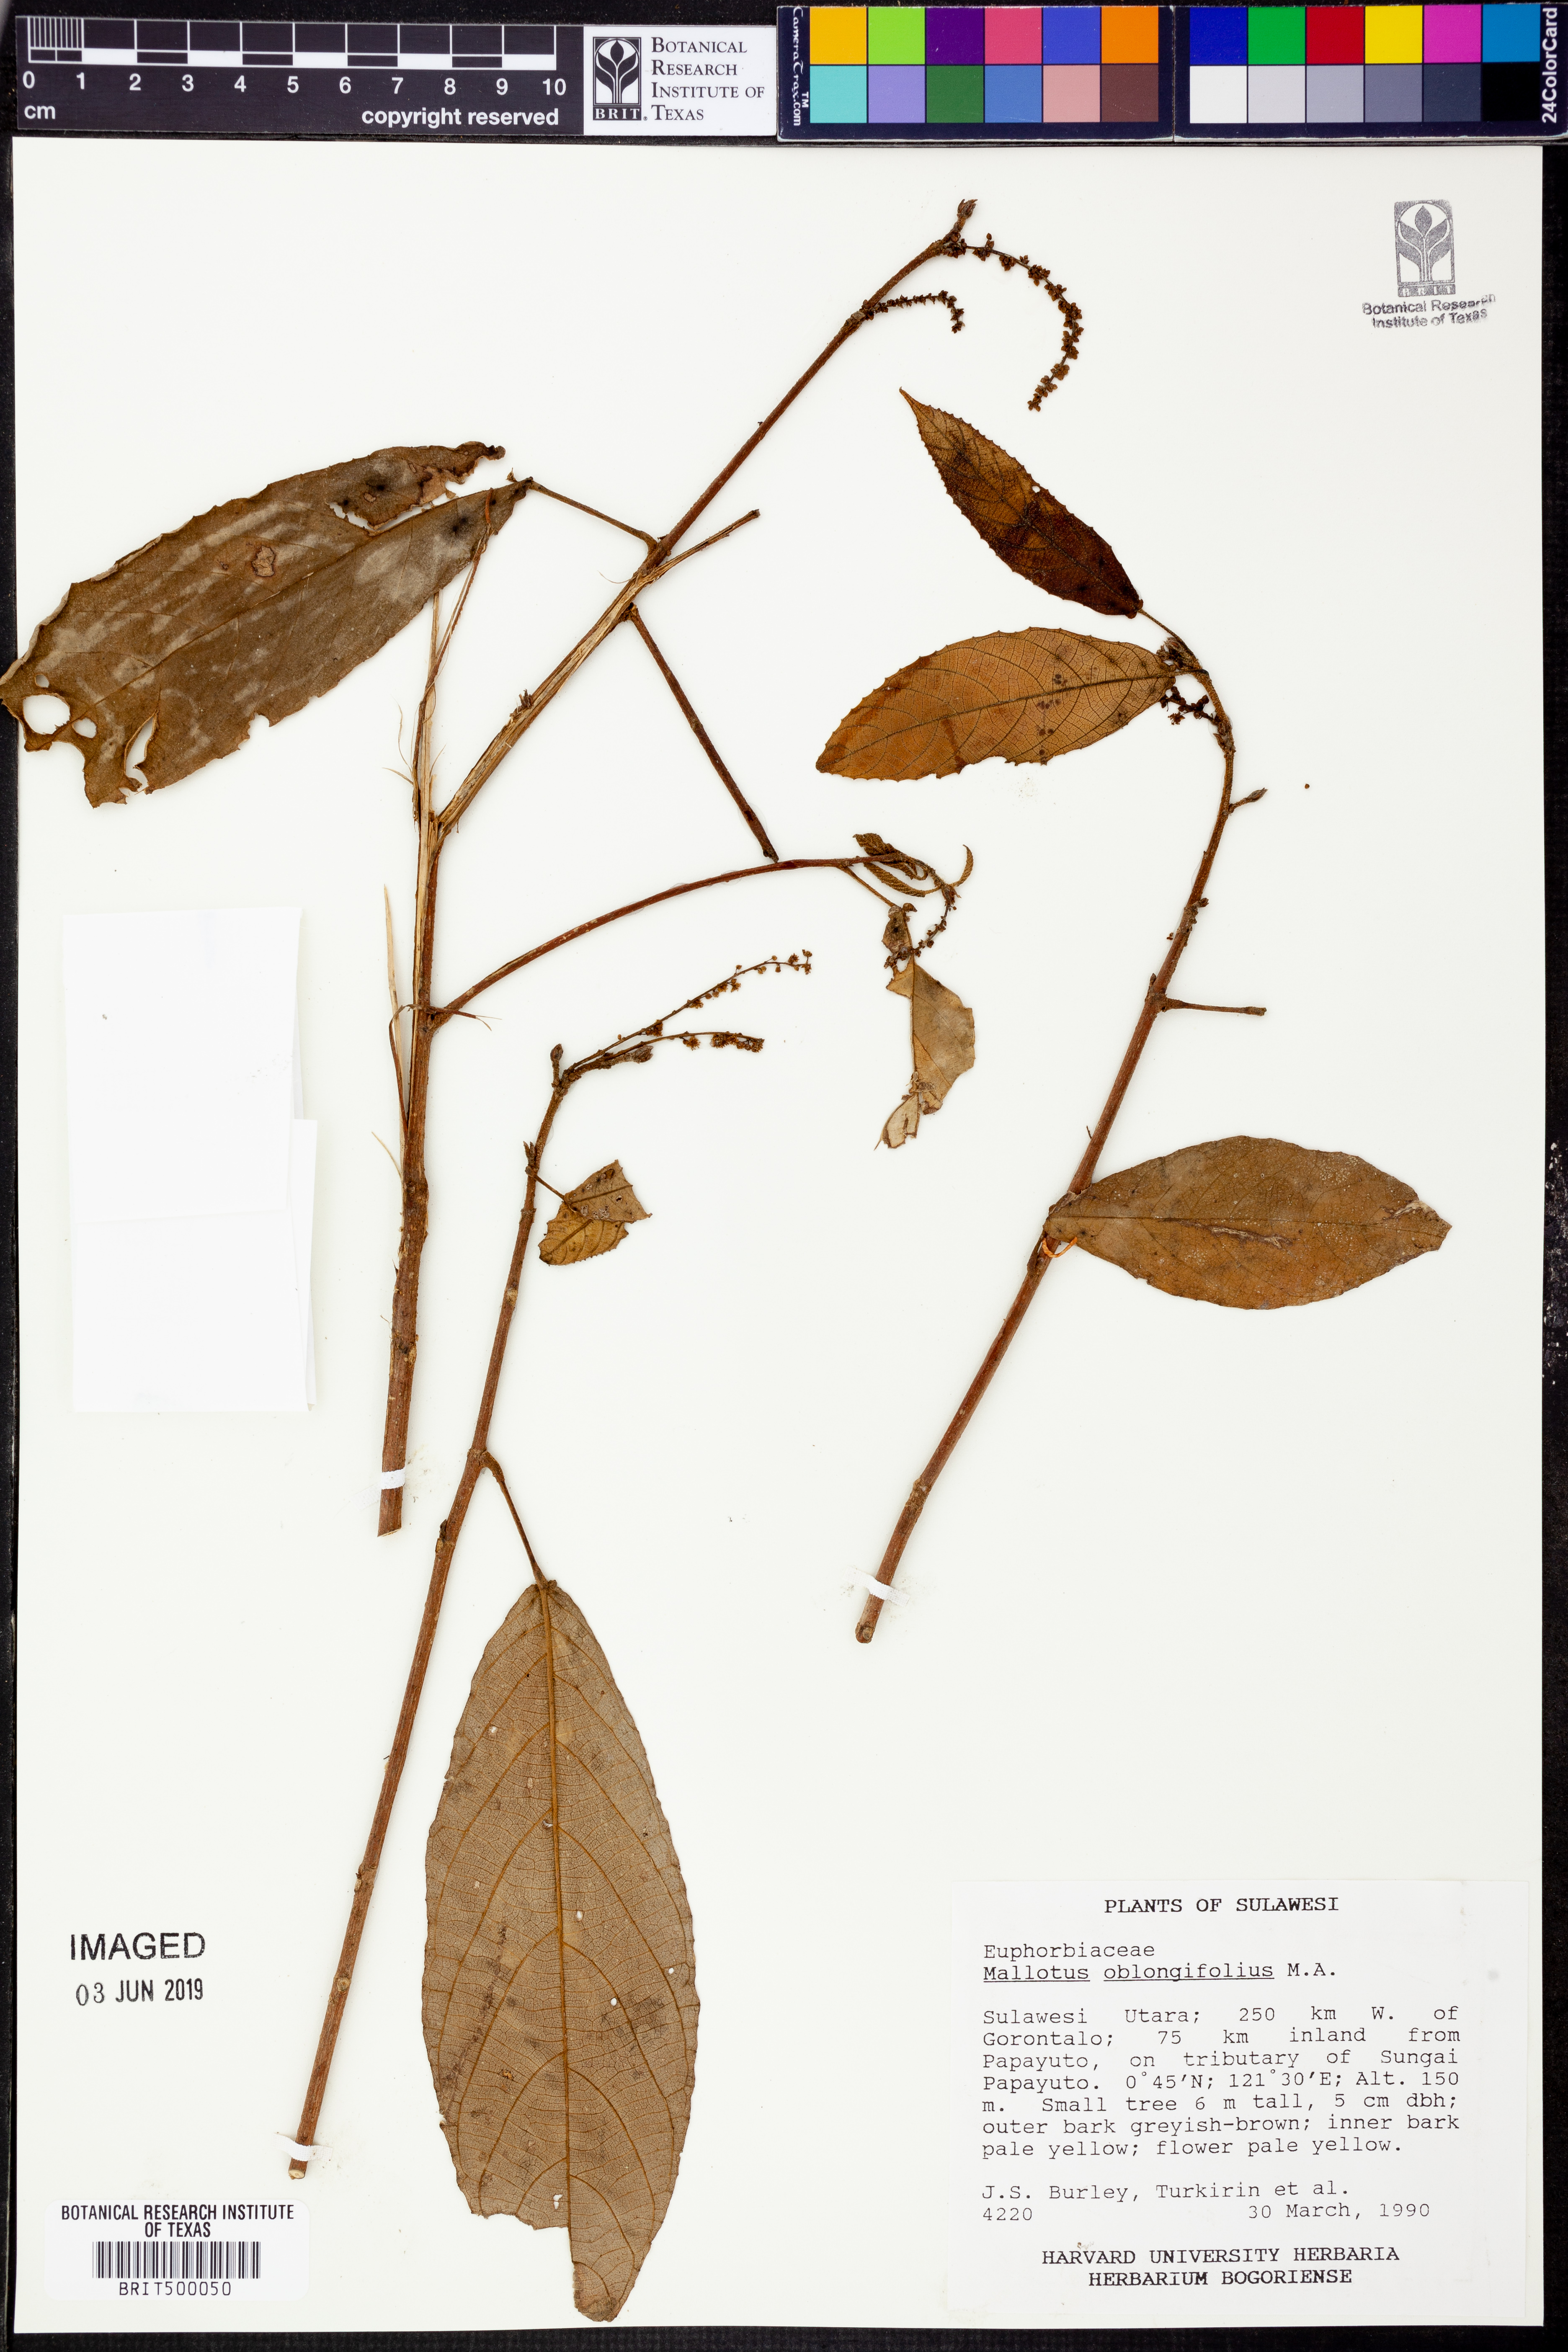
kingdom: Plantae
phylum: Tracheophyta
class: Magnoliopsida
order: Malpighiales
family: Euphorbiaceae
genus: Mallotus
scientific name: Mallotus peltatus
